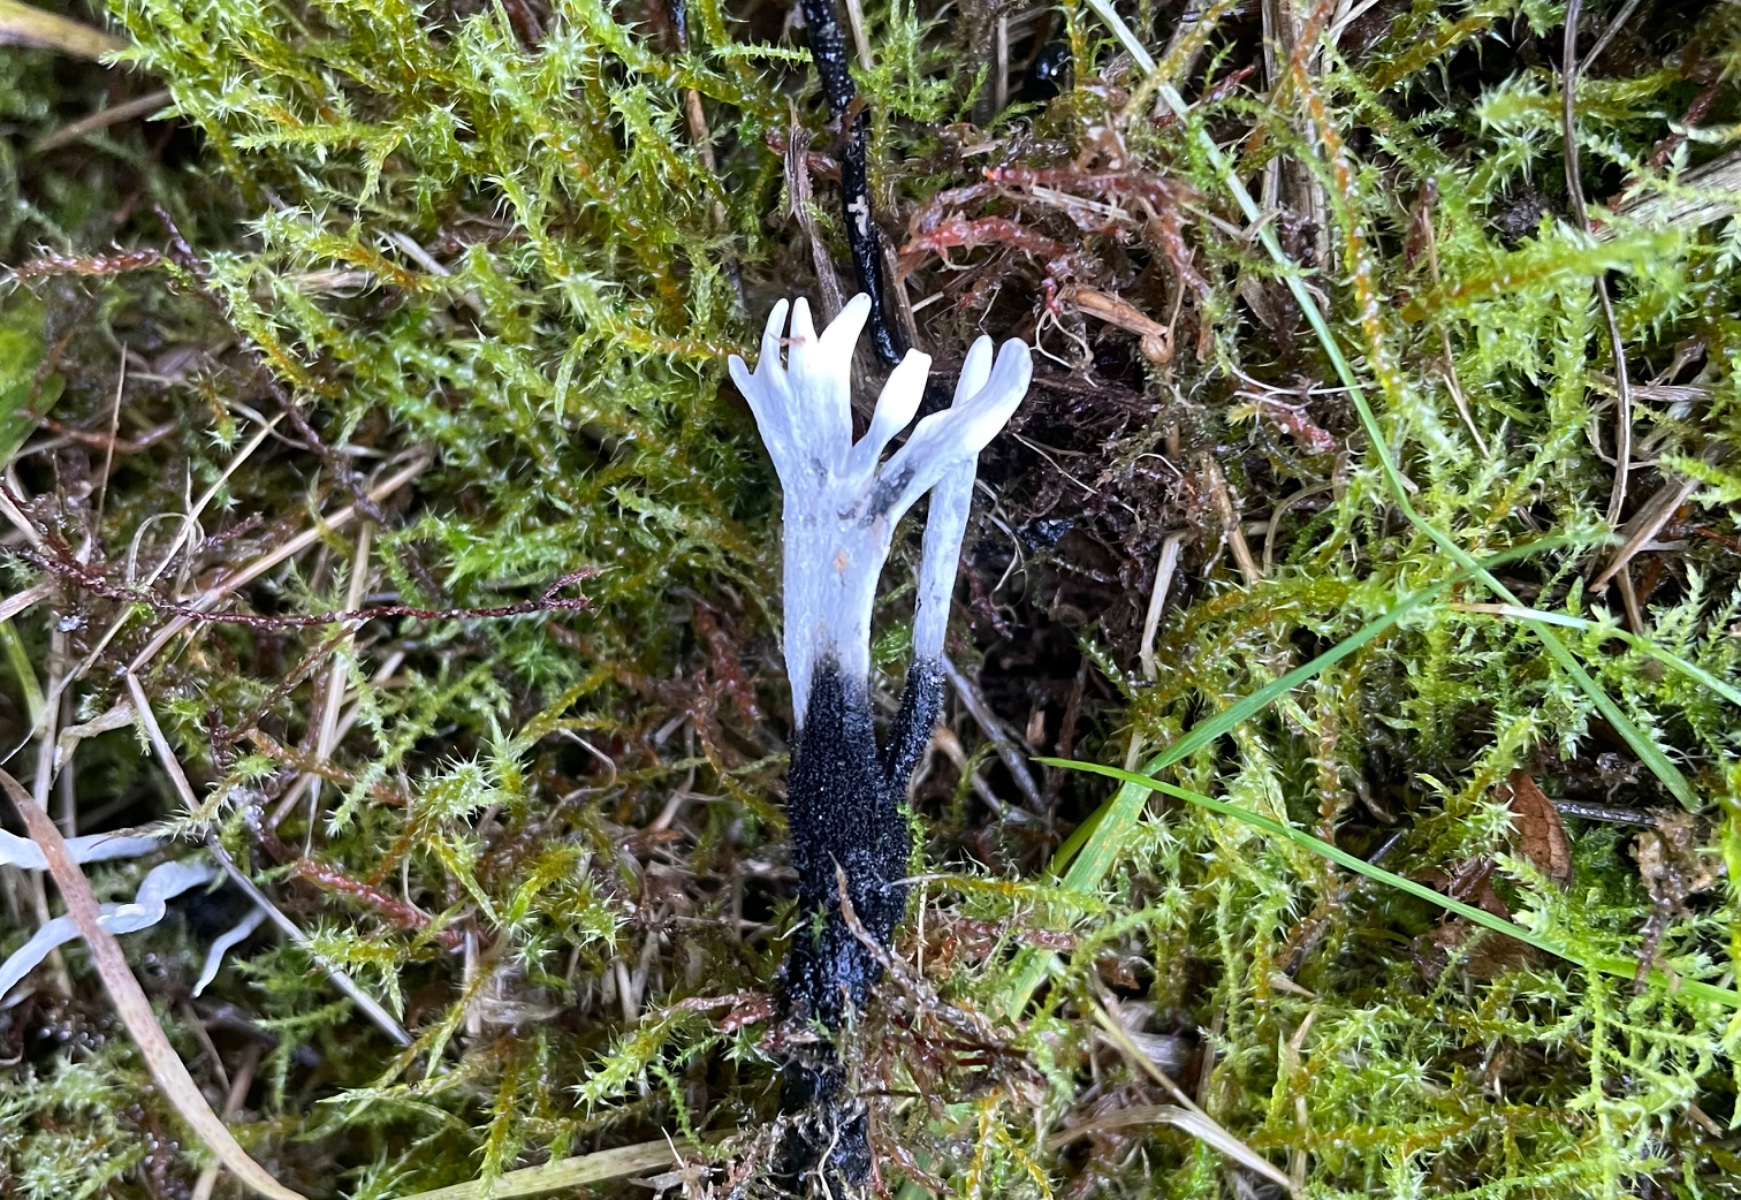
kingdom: Fungi
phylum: Ascomycota
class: Sordariomycetes
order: Xylariales
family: Xylariaceae
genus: Xylaria
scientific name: Xylaria hypoxylon
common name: grenet stødsvamp
